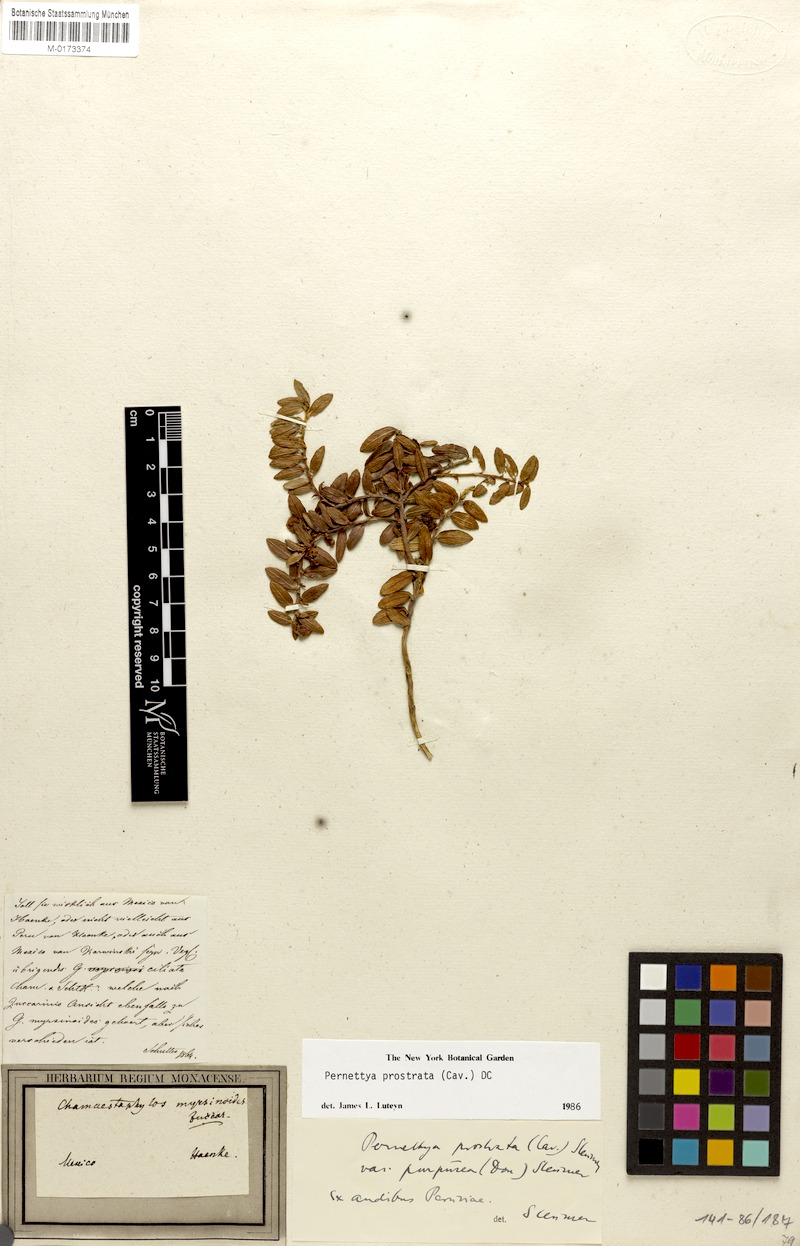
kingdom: Plantae
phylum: Tracheophyta
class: Magnoliopsida
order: Ericales
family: Ericaceae
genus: Gaultheria
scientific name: Gaultheria myrsinoides
